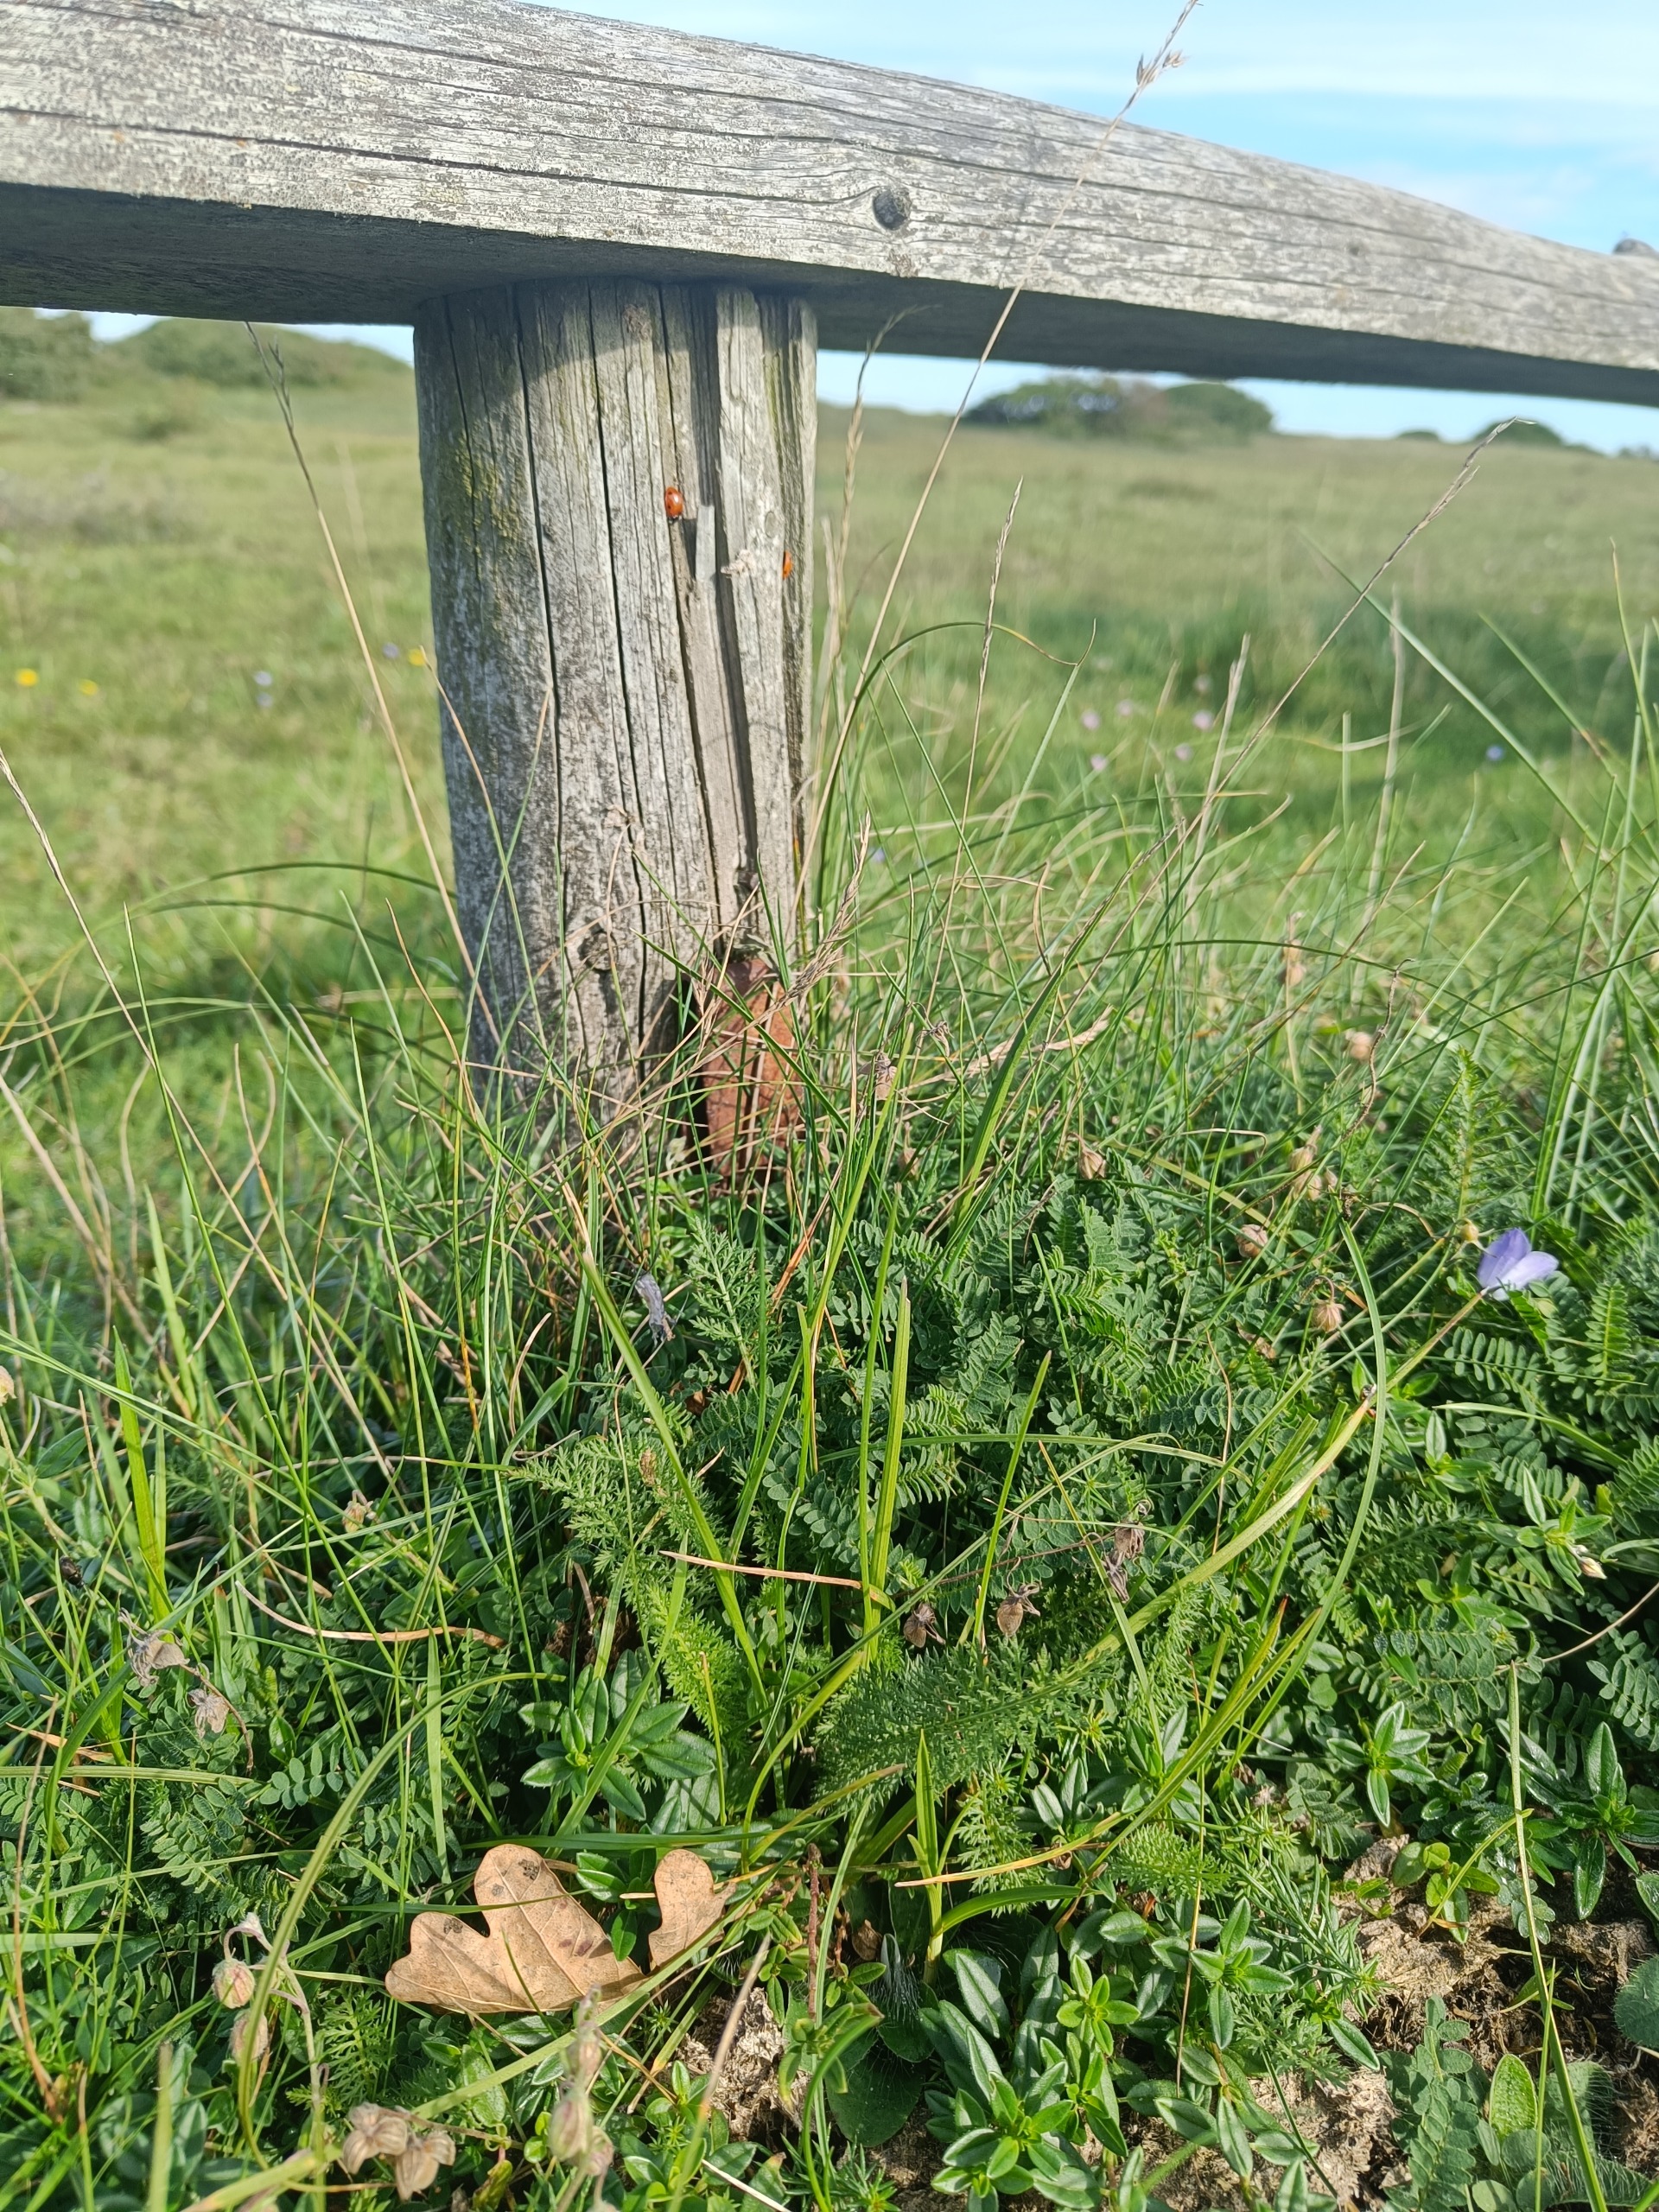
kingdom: Plantae
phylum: Tracheophyta
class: Magnoliopsida
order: Fabales
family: Fabaceae
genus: Astragalus
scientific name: Astragalus danicus
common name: Dansk astragel
